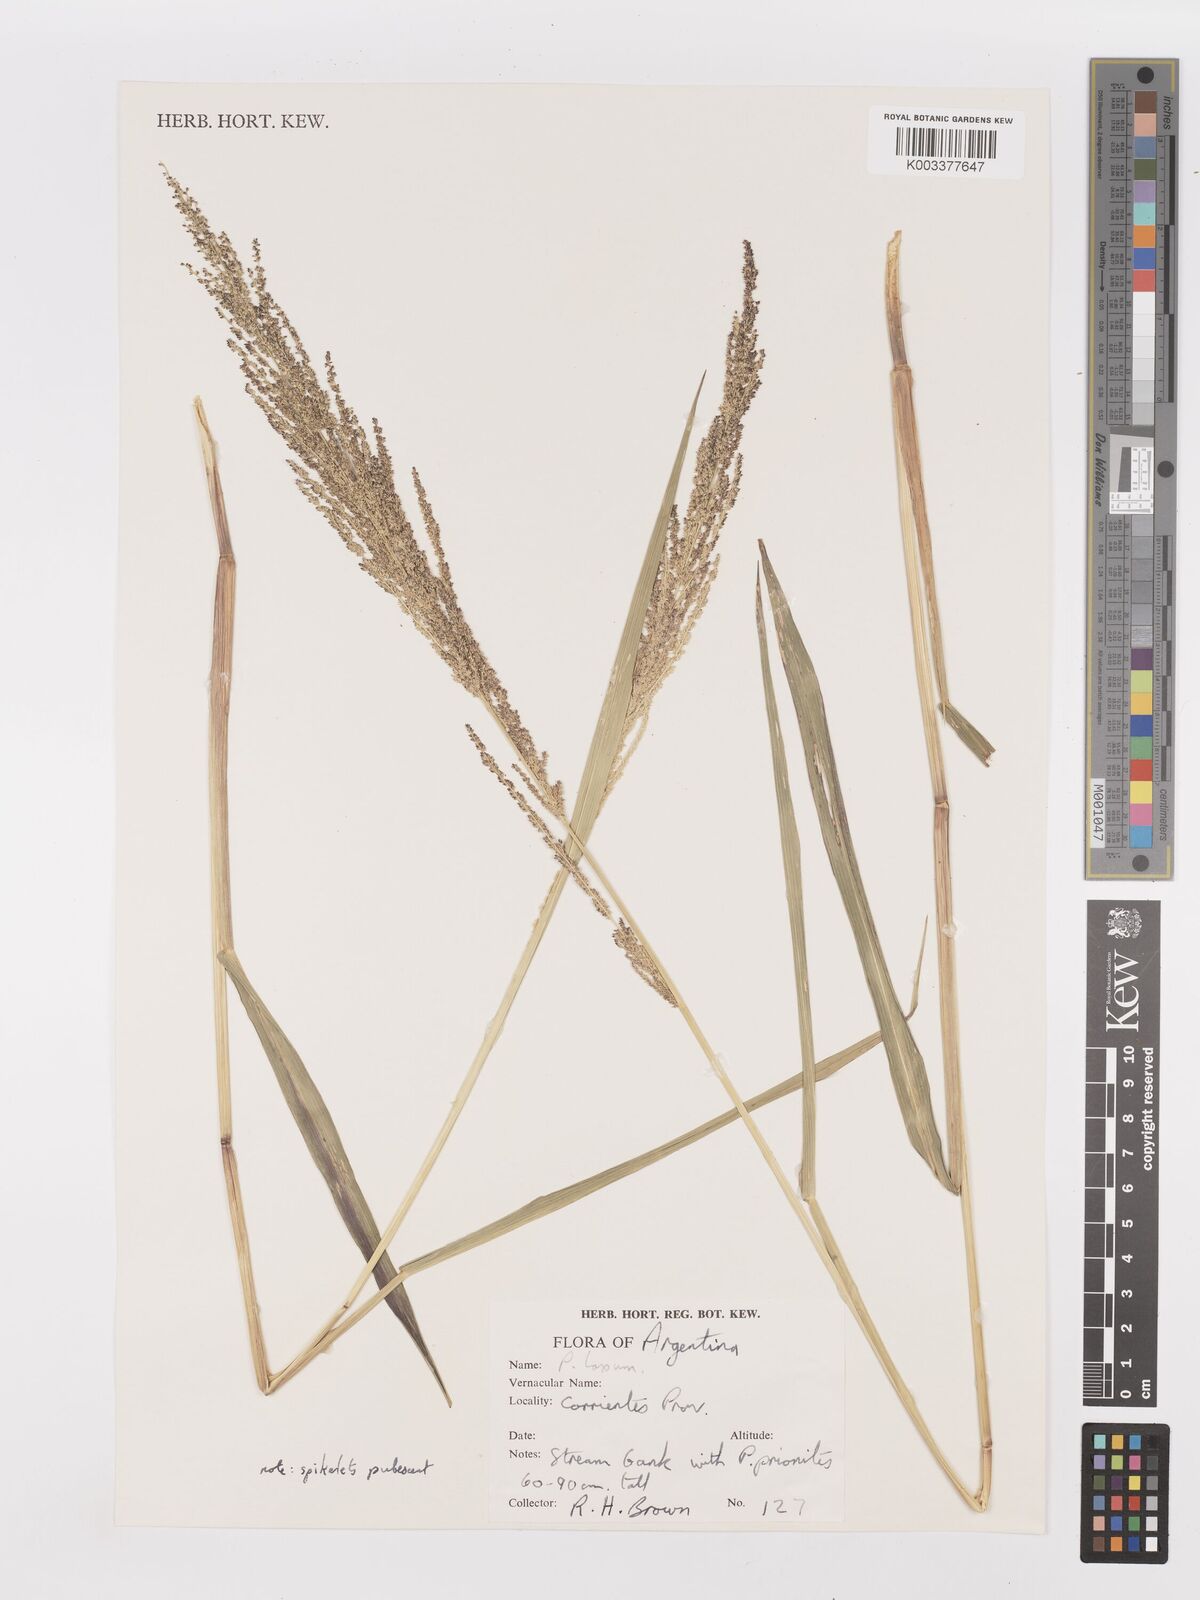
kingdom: Plantae
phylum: Tracheophyta
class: Liliopsida
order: Poales
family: Poaceae
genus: Steinchisma
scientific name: Steinchisma laxum
